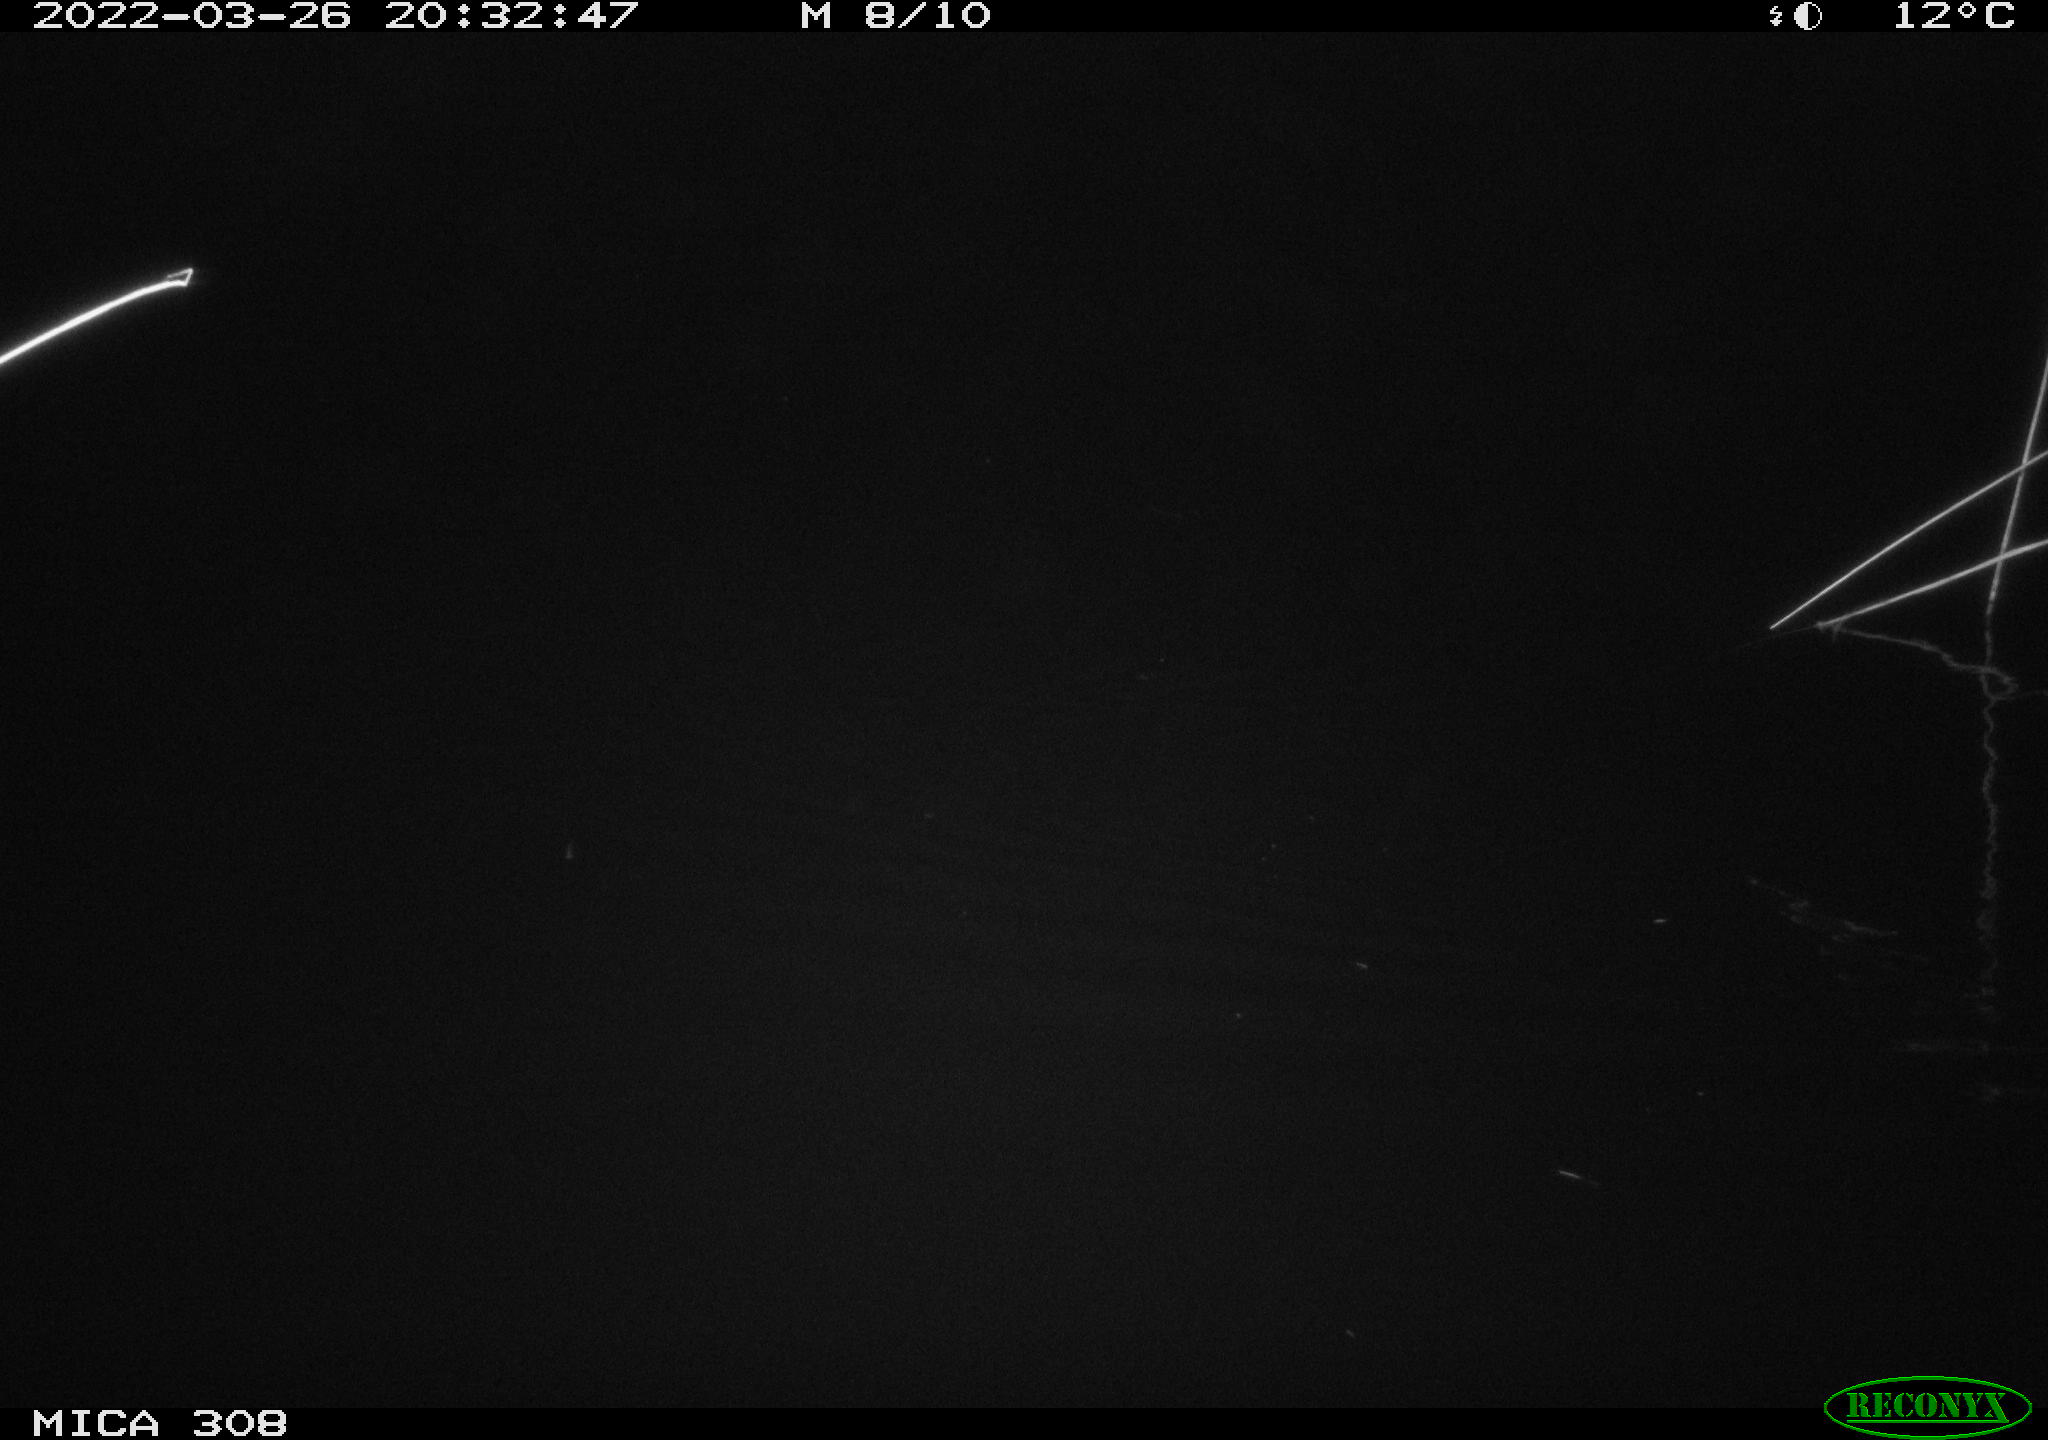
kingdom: Animalia
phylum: Chordata
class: Mammalia
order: Rodentia
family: Muridae
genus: Rattus
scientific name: Rattus norvegicus
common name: Brown rat
